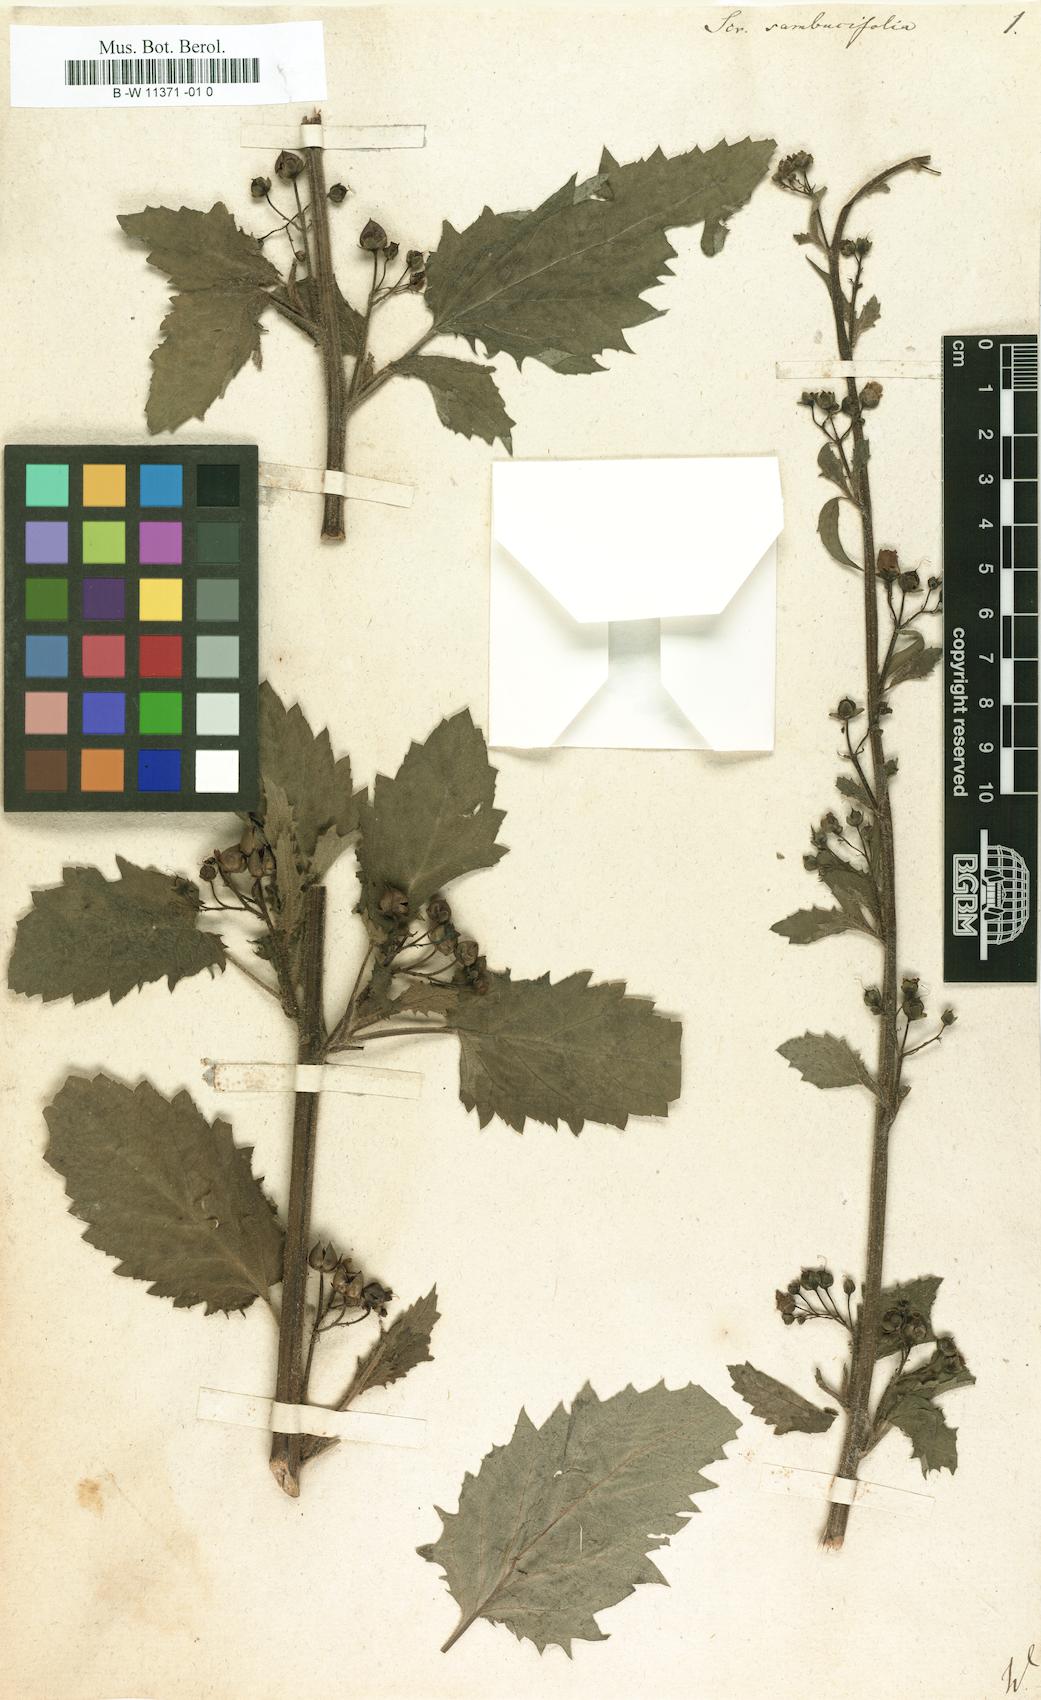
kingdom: Plantae
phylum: Tracheophyta
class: Magnoliopsida
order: Lamiales
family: Scrophulariaceae
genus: Scrophularia
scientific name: Scrophularia sambucifolia
